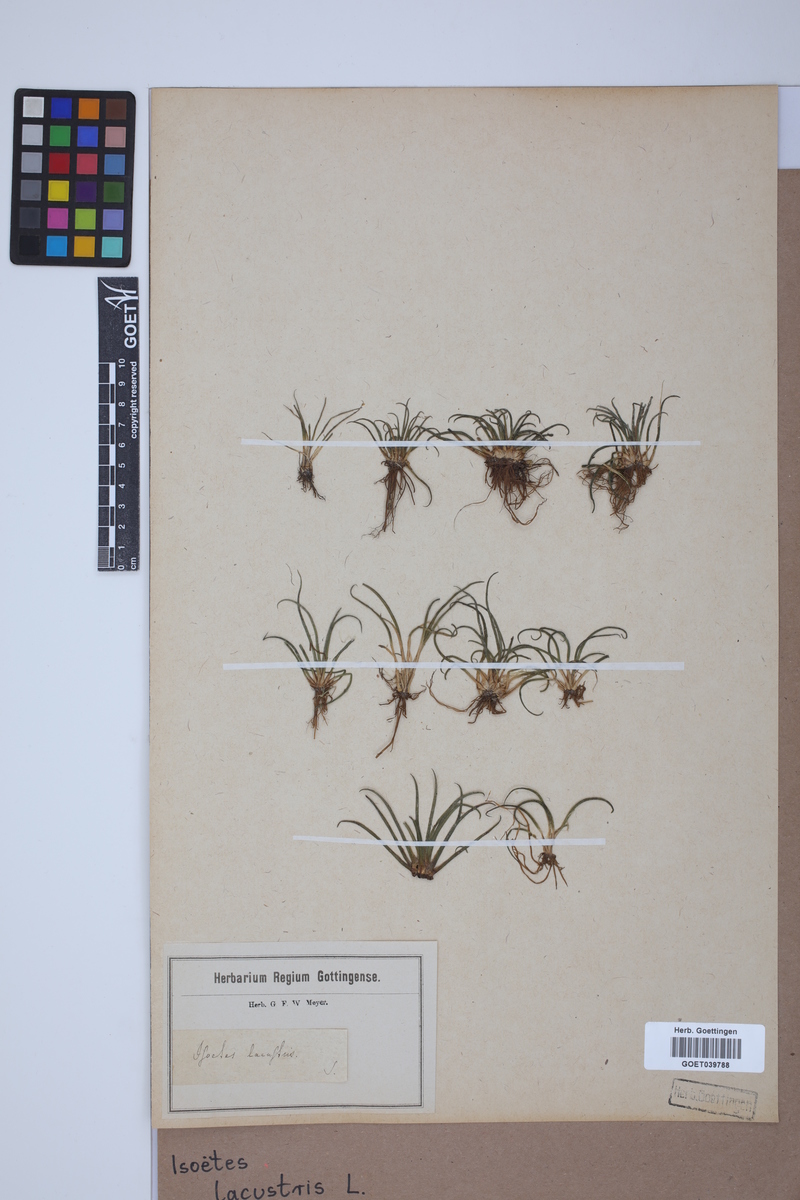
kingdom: Plantae
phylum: Tracheophyta
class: Lycopodiopsida
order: Isoetales
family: Isoetaceae
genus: Isoetes
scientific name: Isoetes lacustris
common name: Common quillwort
